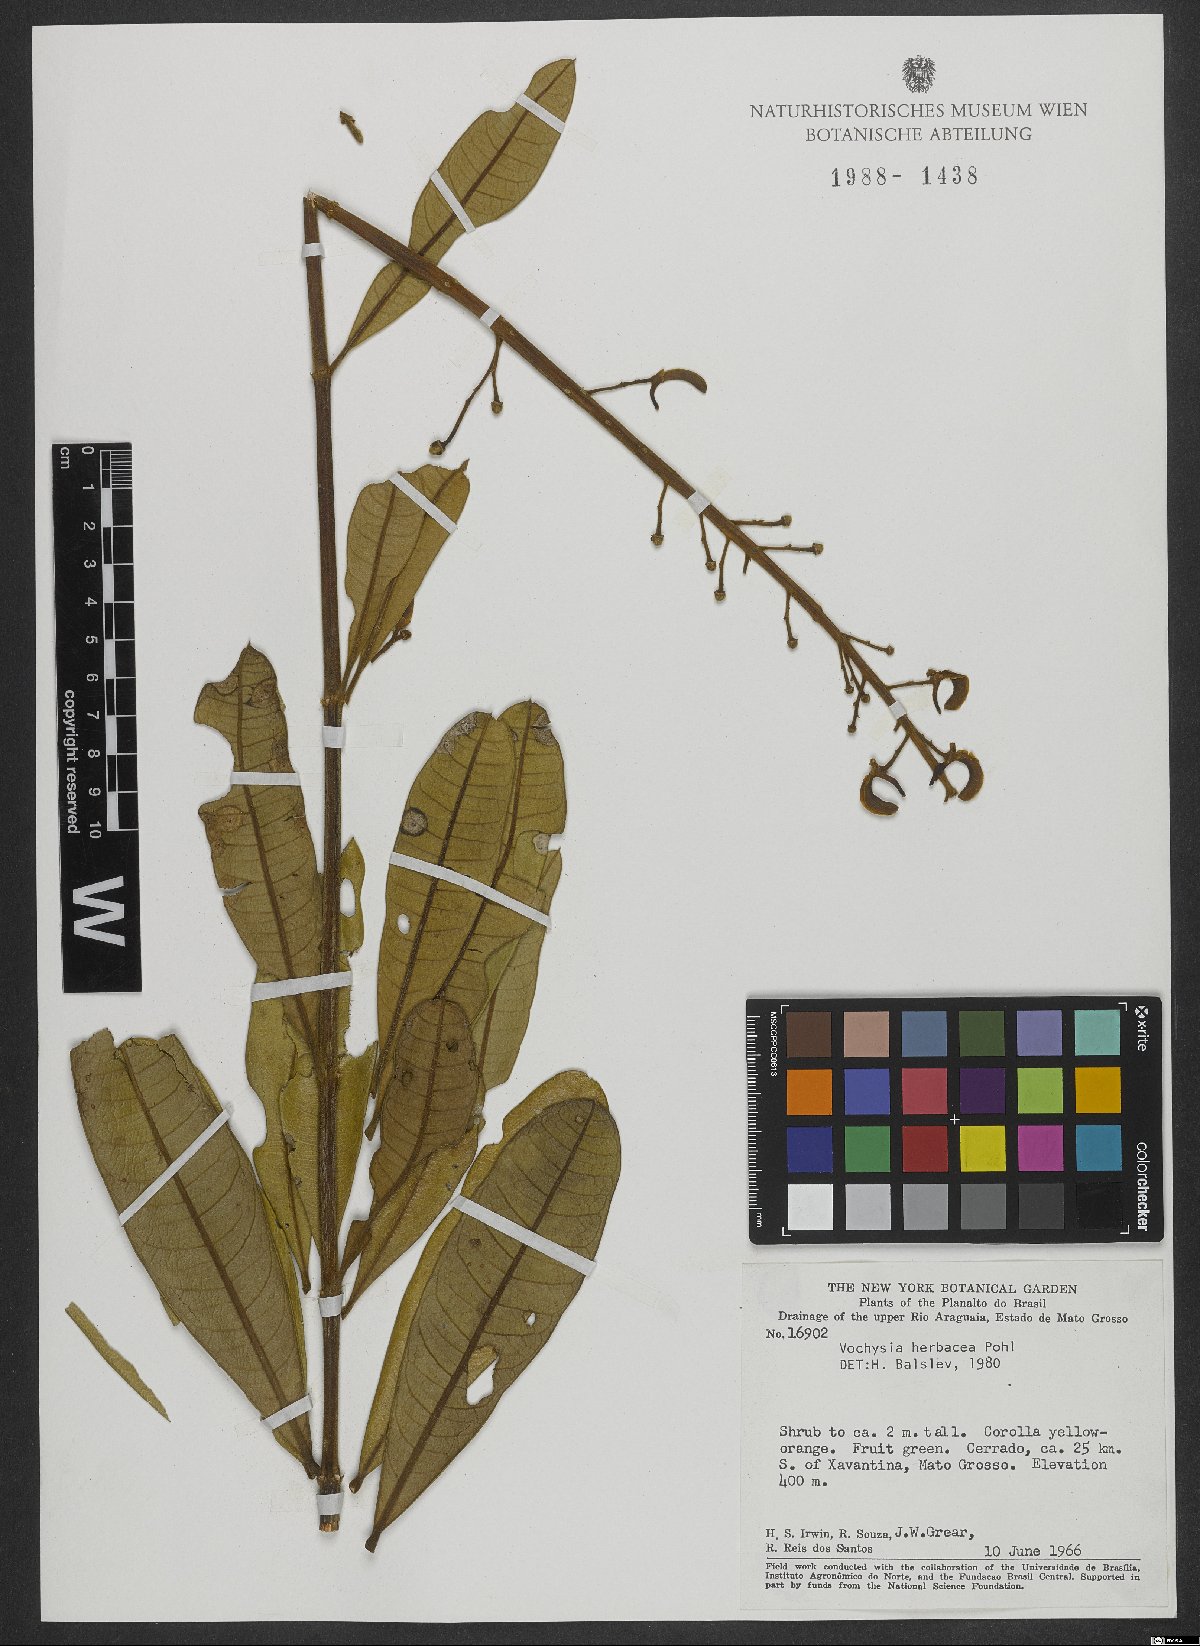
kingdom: Plantae
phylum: Tracheophyta
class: Magnoliopsida
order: Myrtales
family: Vochysiaceae
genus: Vochysia
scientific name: Vochysia herbacea
